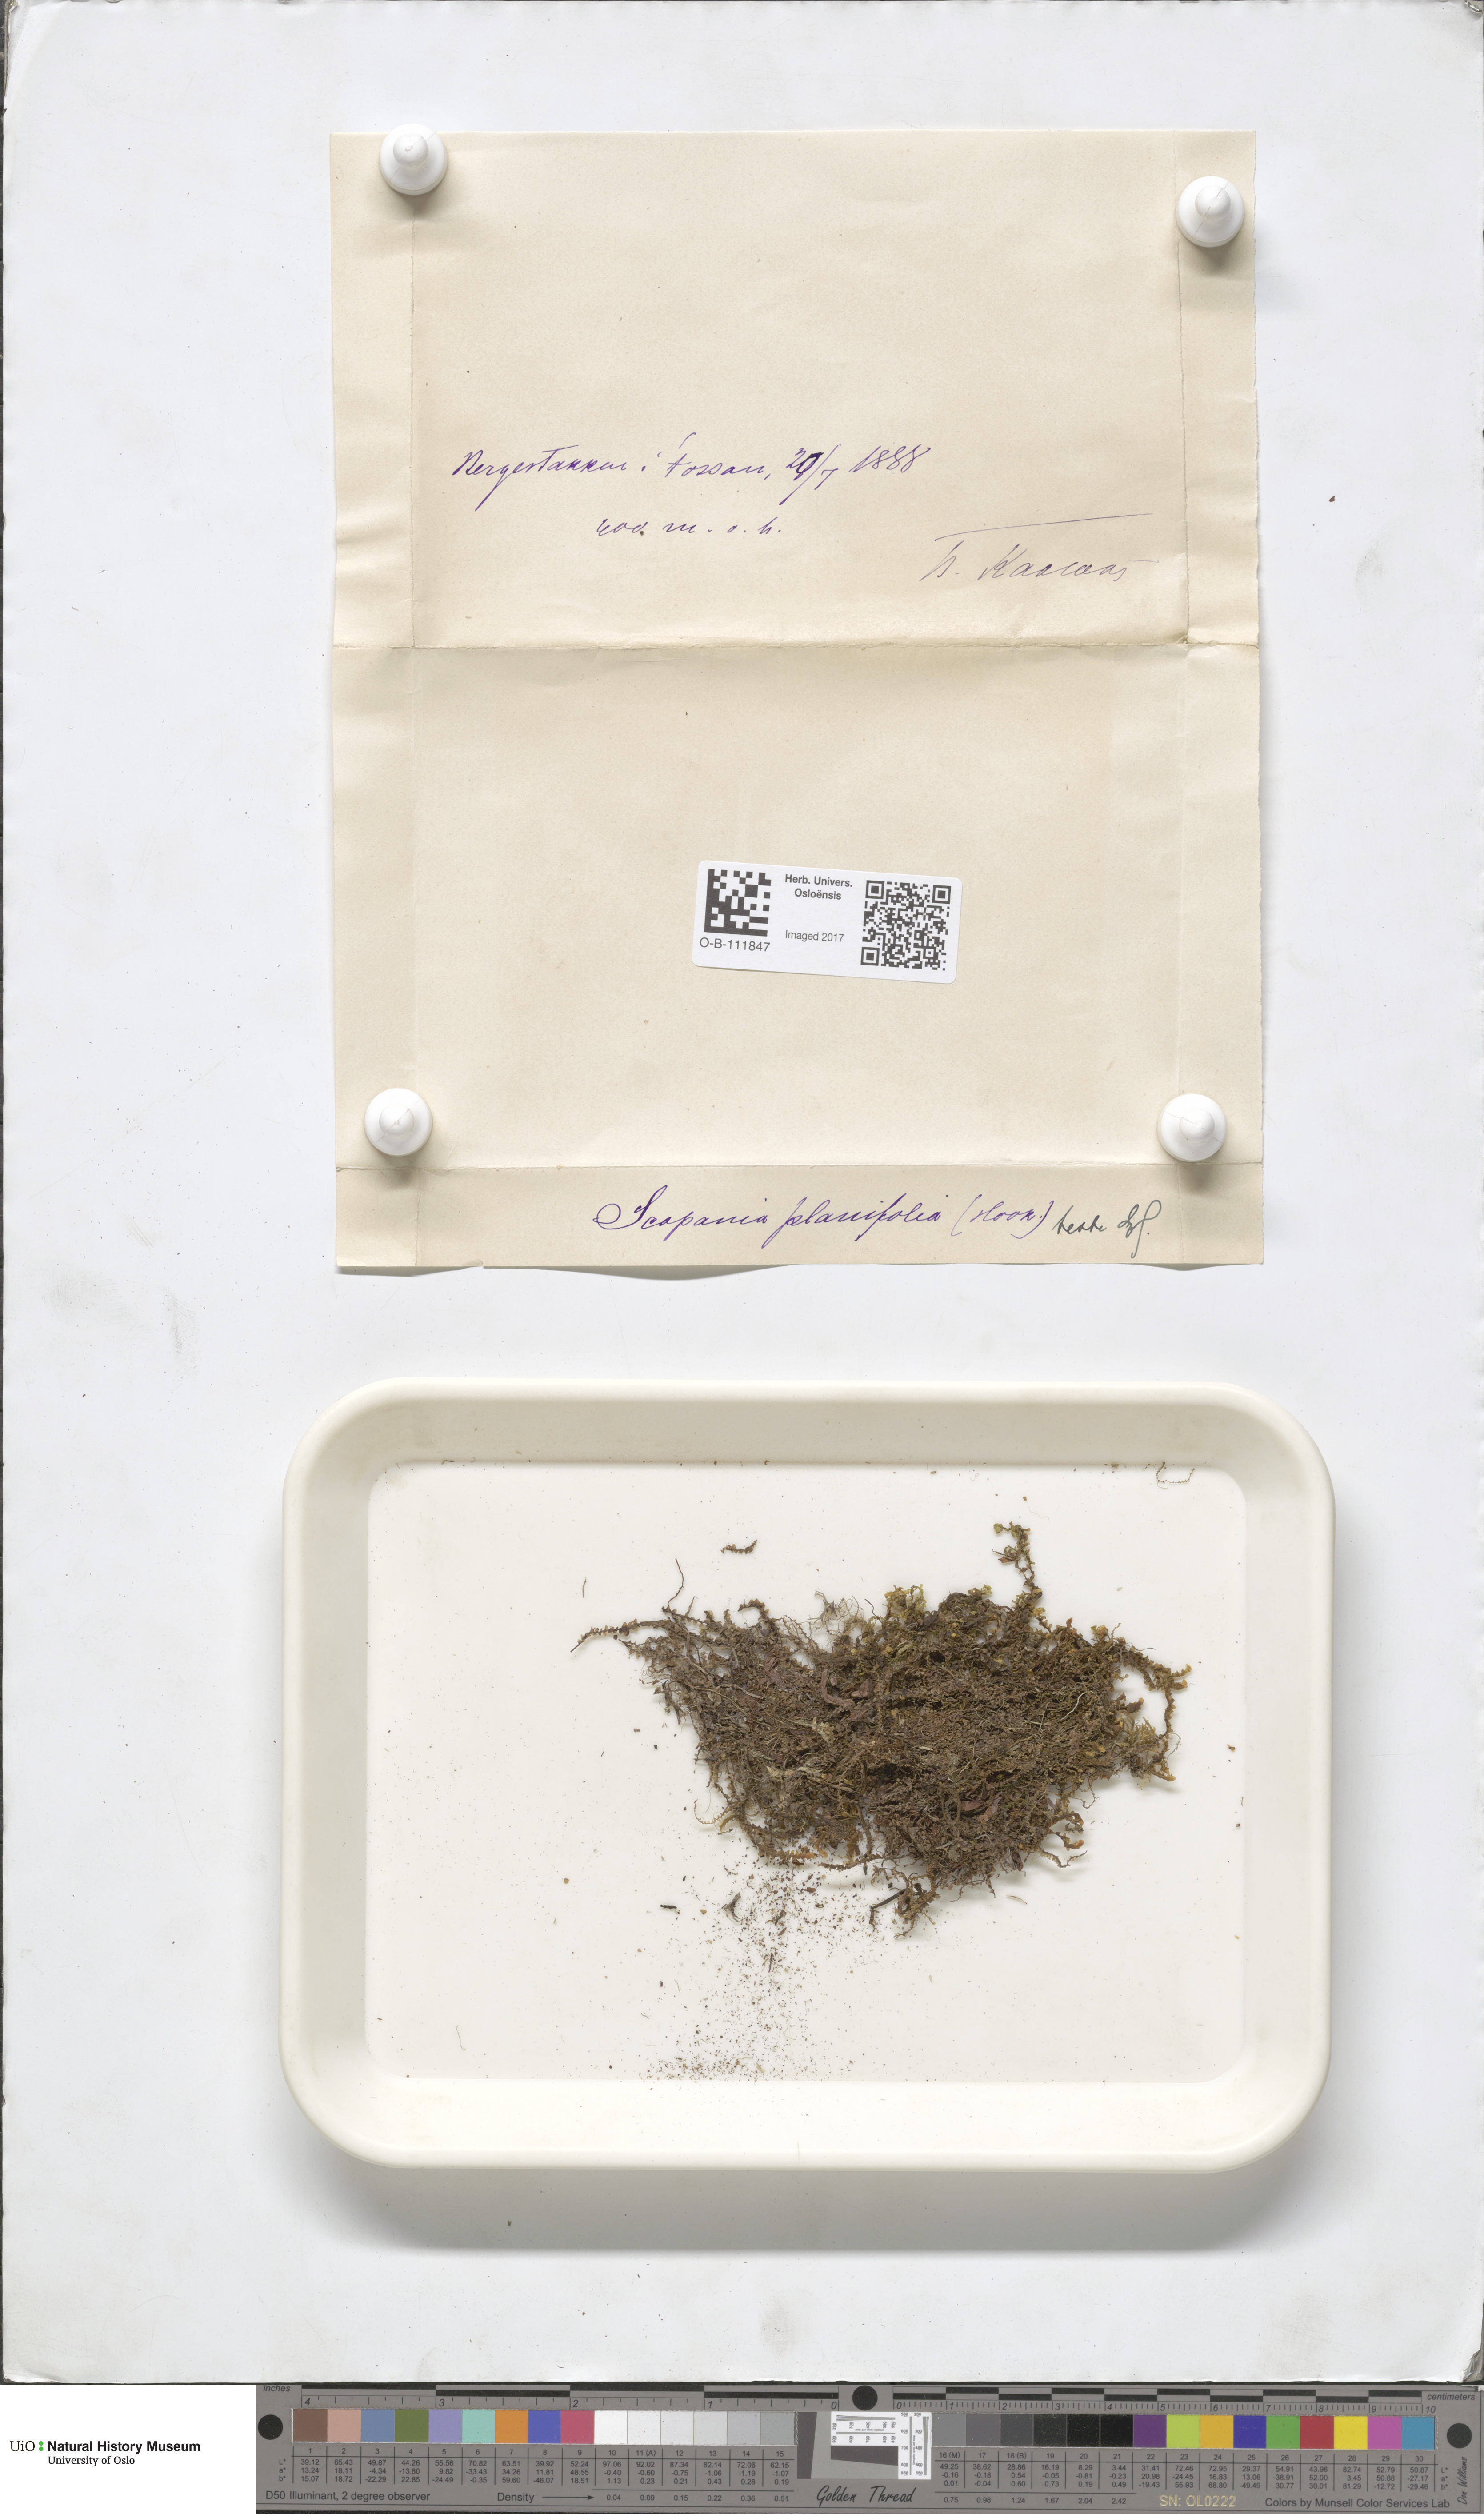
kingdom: Plantae
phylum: Marchantiophyta
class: Jungermanniopsida
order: Jungermanniales
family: Scapaniaceae
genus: Scapania
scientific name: Scapania ornithopodioides
